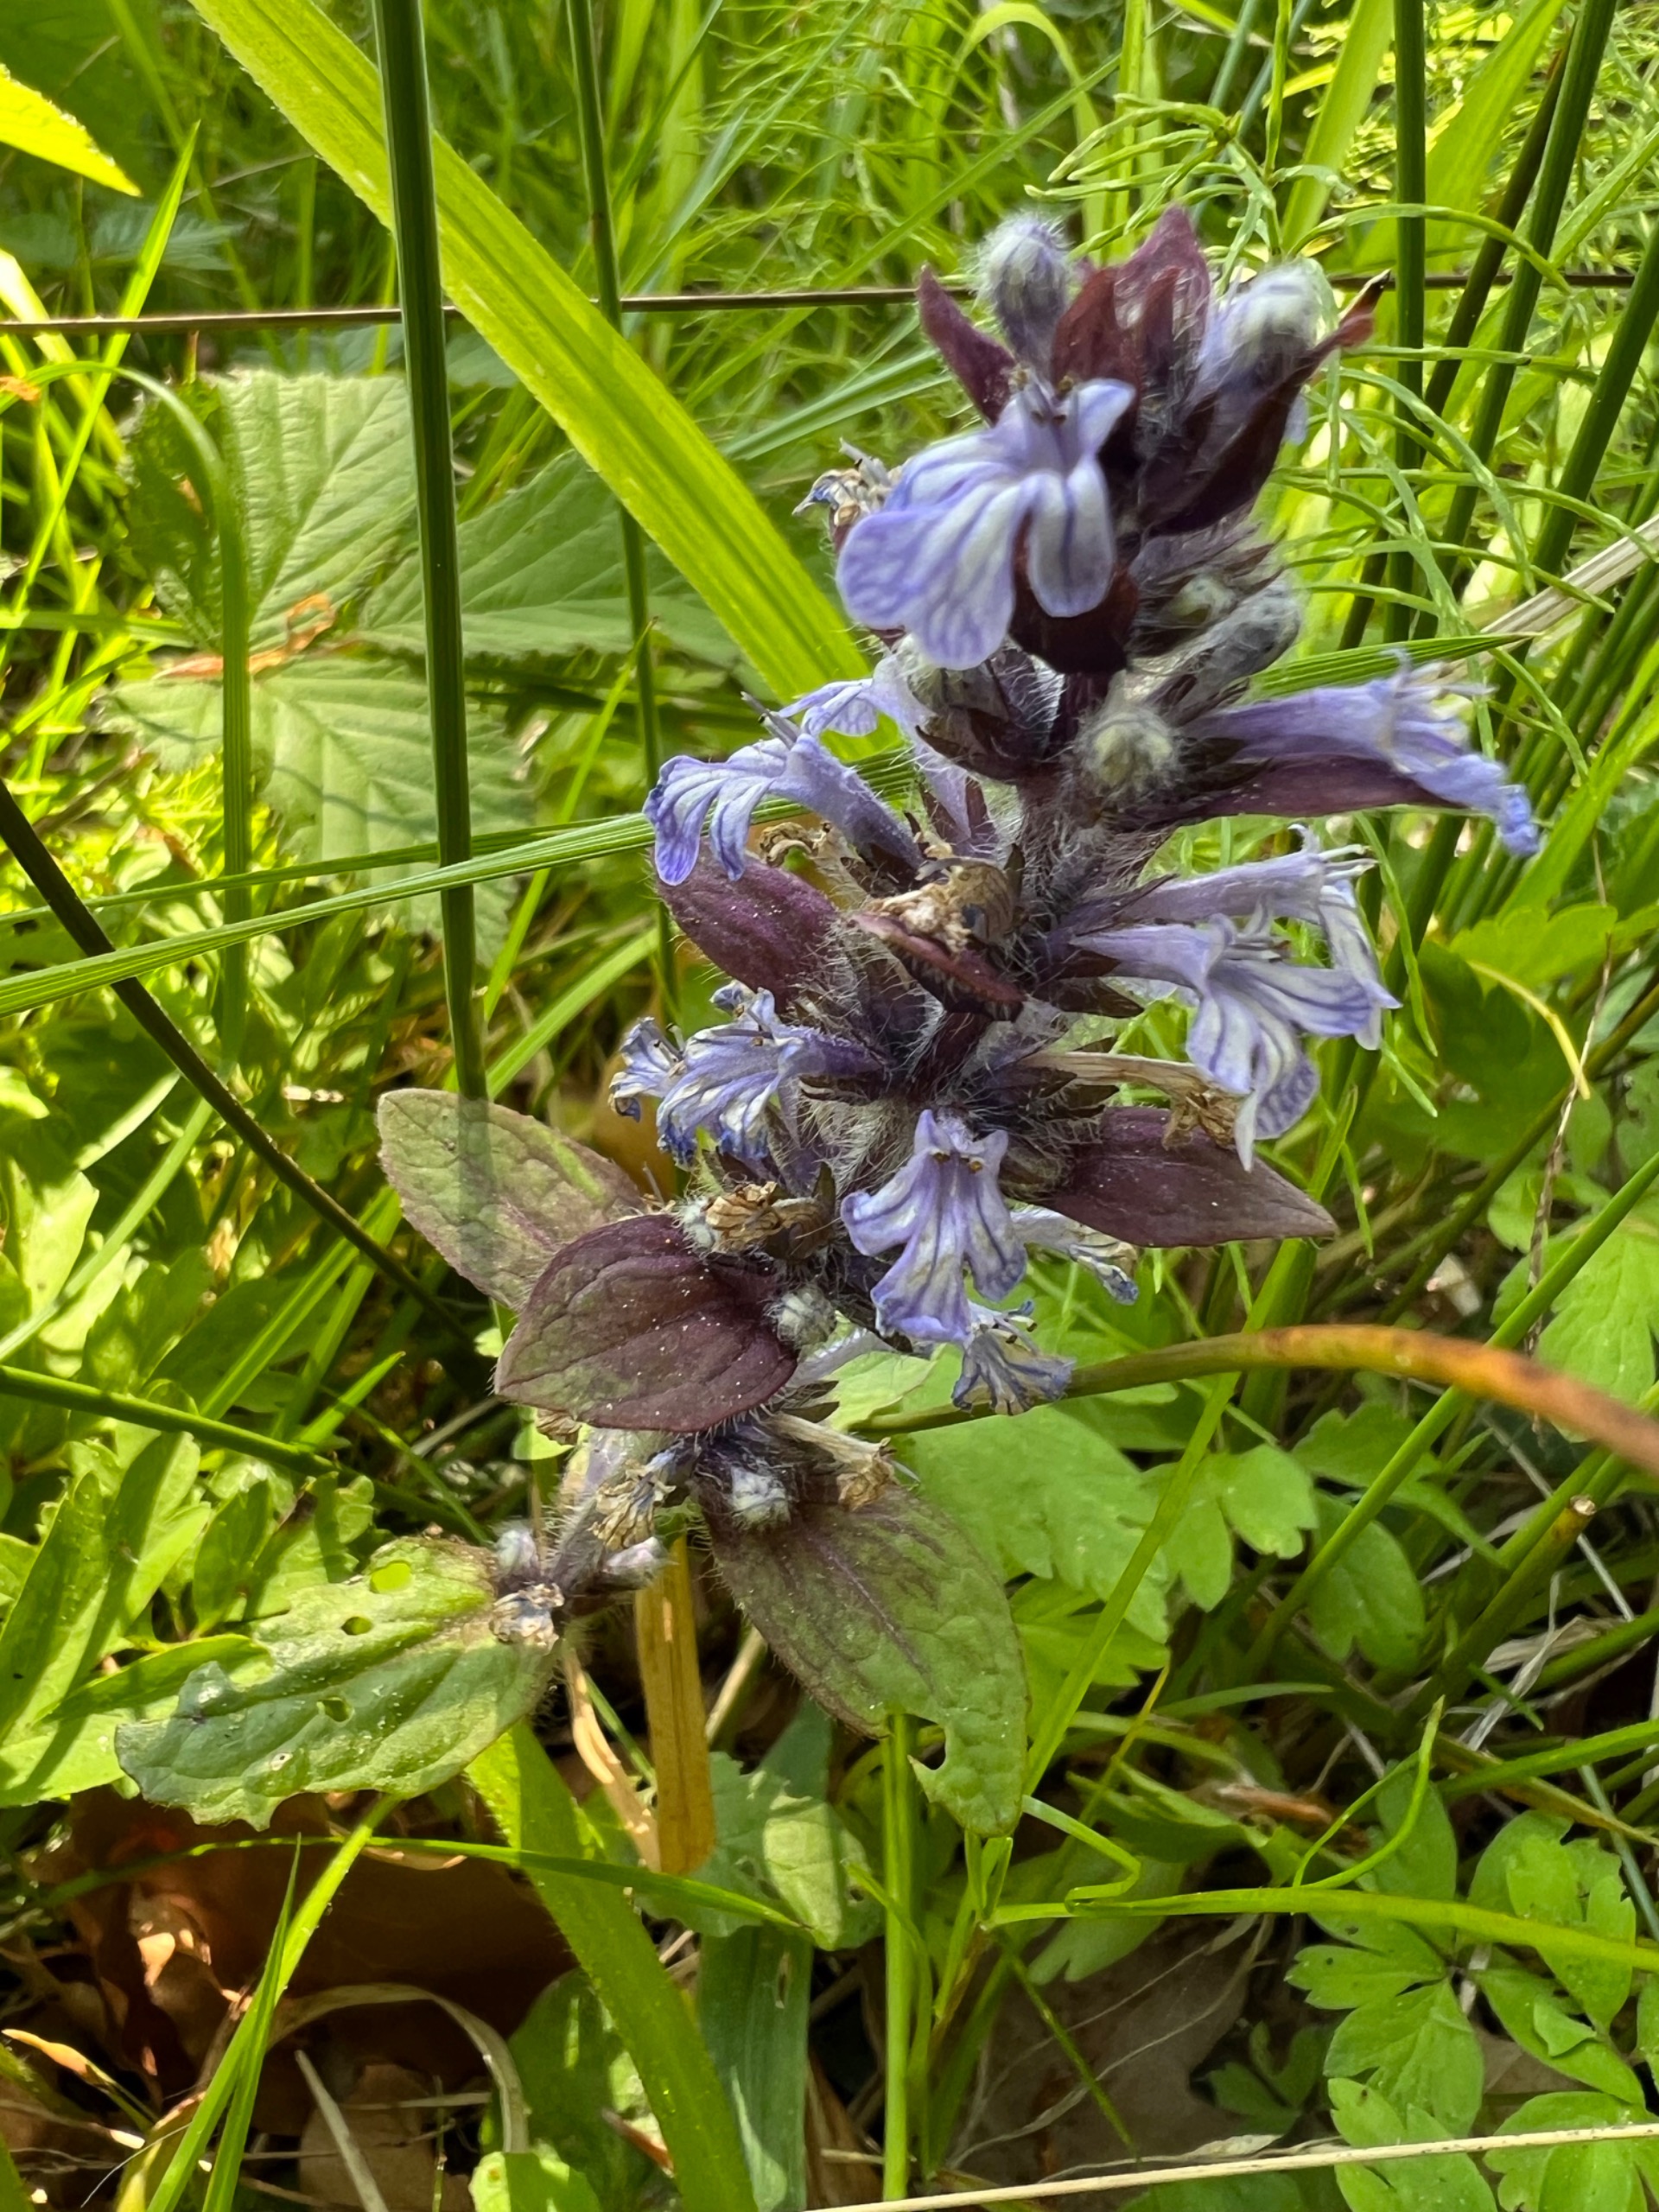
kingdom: Plantae
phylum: Tracheophyta
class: Magnoliopsida
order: Lamiales
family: Lamiaceae
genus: Ajuga
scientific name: Ajuga reptans
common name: Krybende læbeløs
